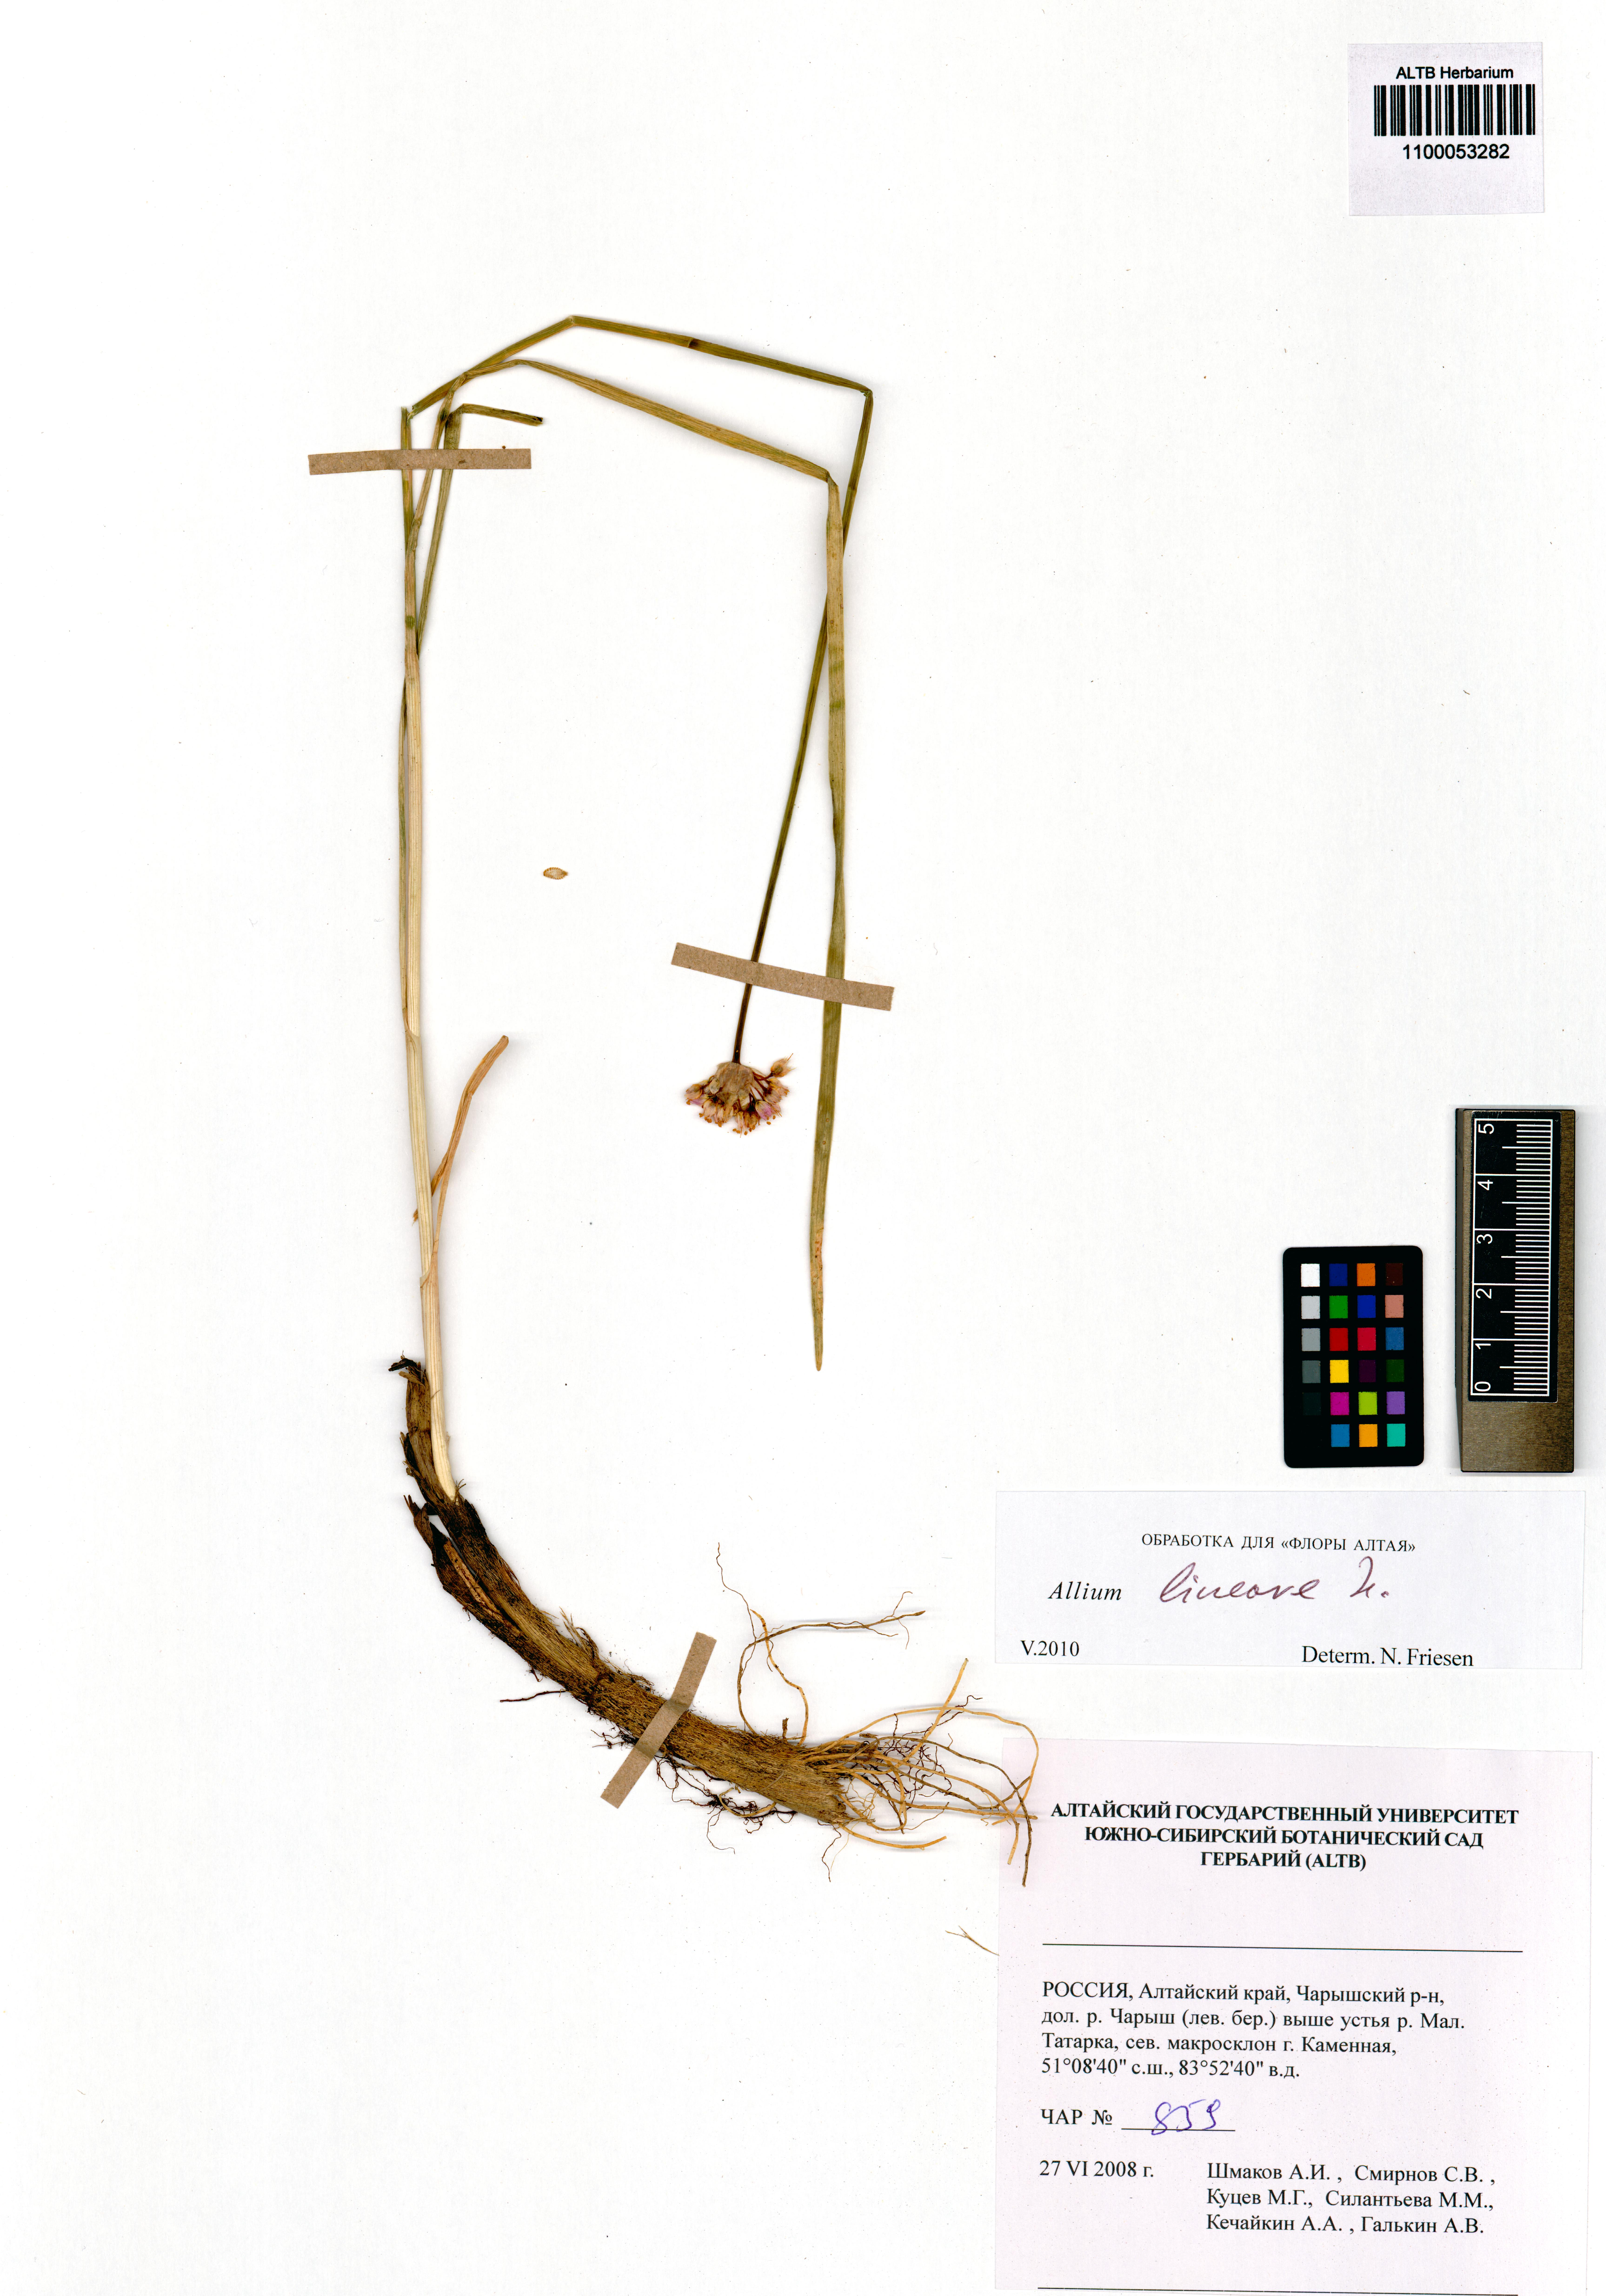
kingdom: Plantae
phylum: Tracheophyta
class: Liliopsida
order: Asparagales
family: Amaryllidaceae
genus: Allium
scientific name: Allium lineare
